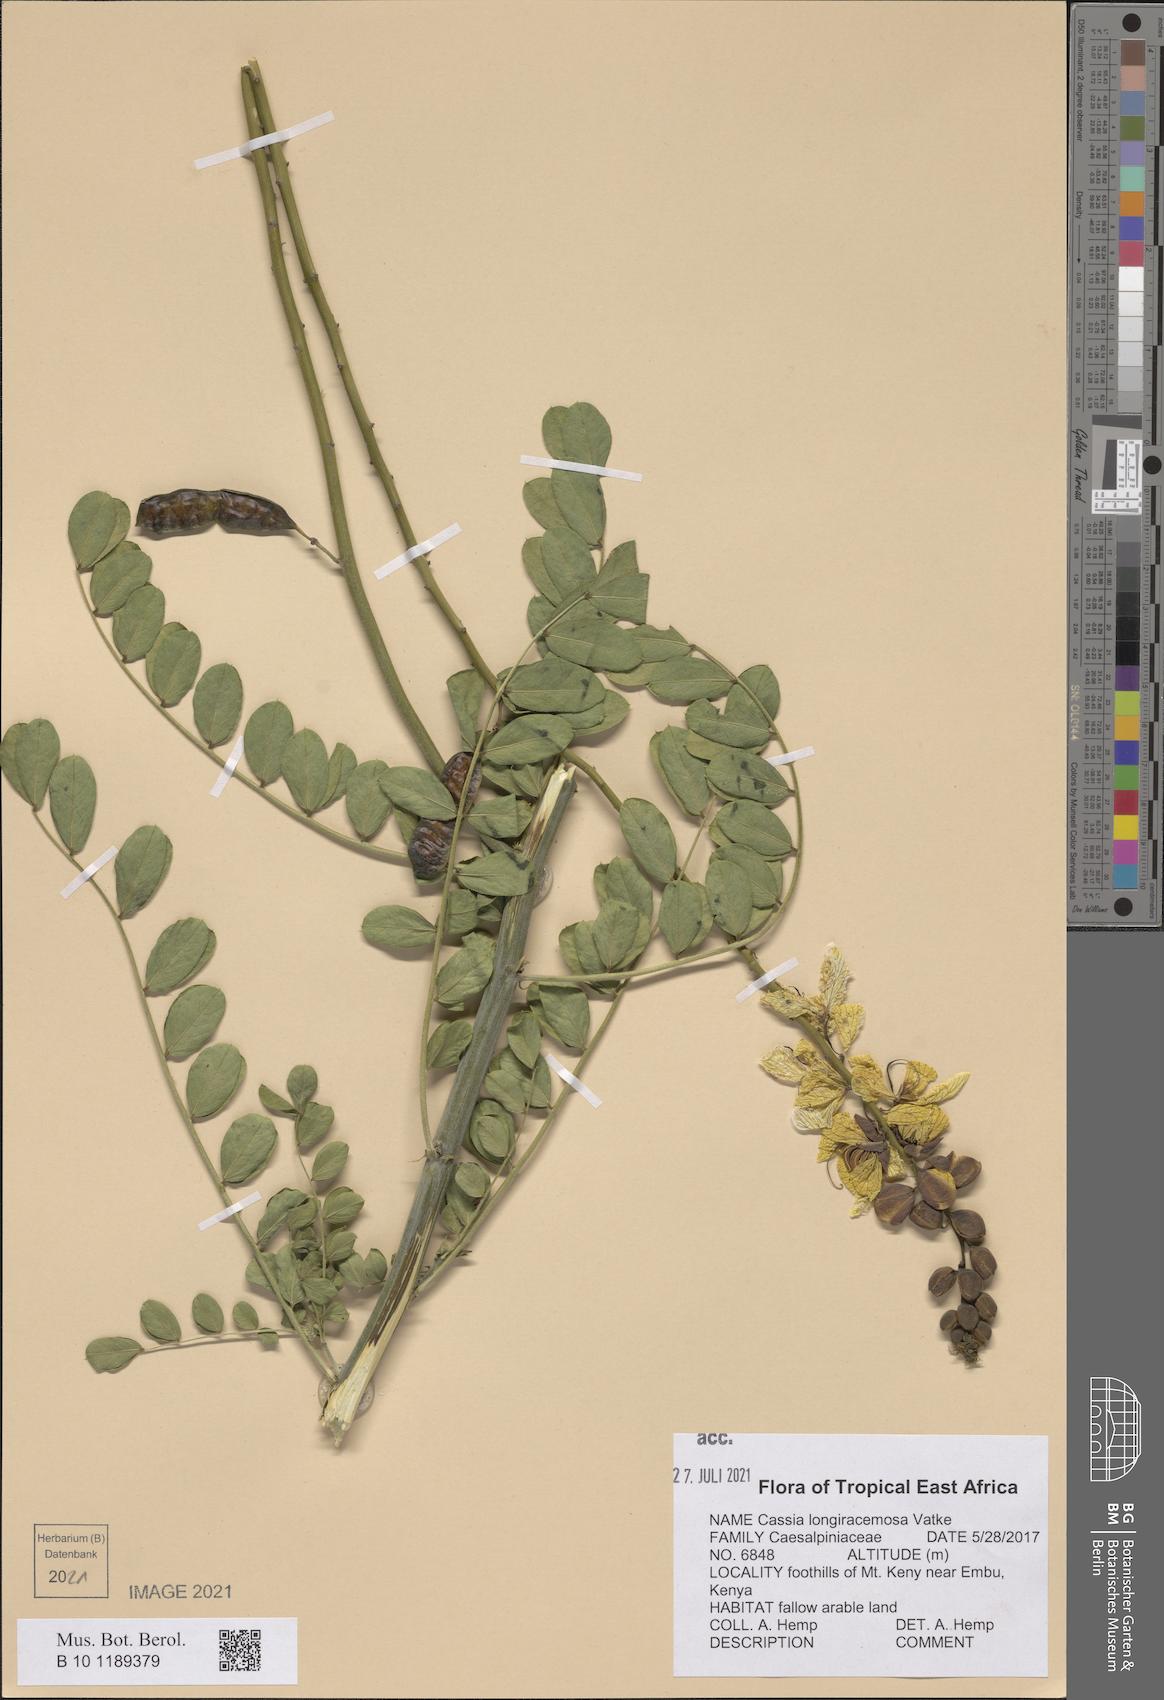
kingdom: Plantae
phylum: Tracheophyta
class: Magnoliopsida
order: Fabales
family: Fabaceae
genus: Senna
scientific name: Senna longiracemosa
